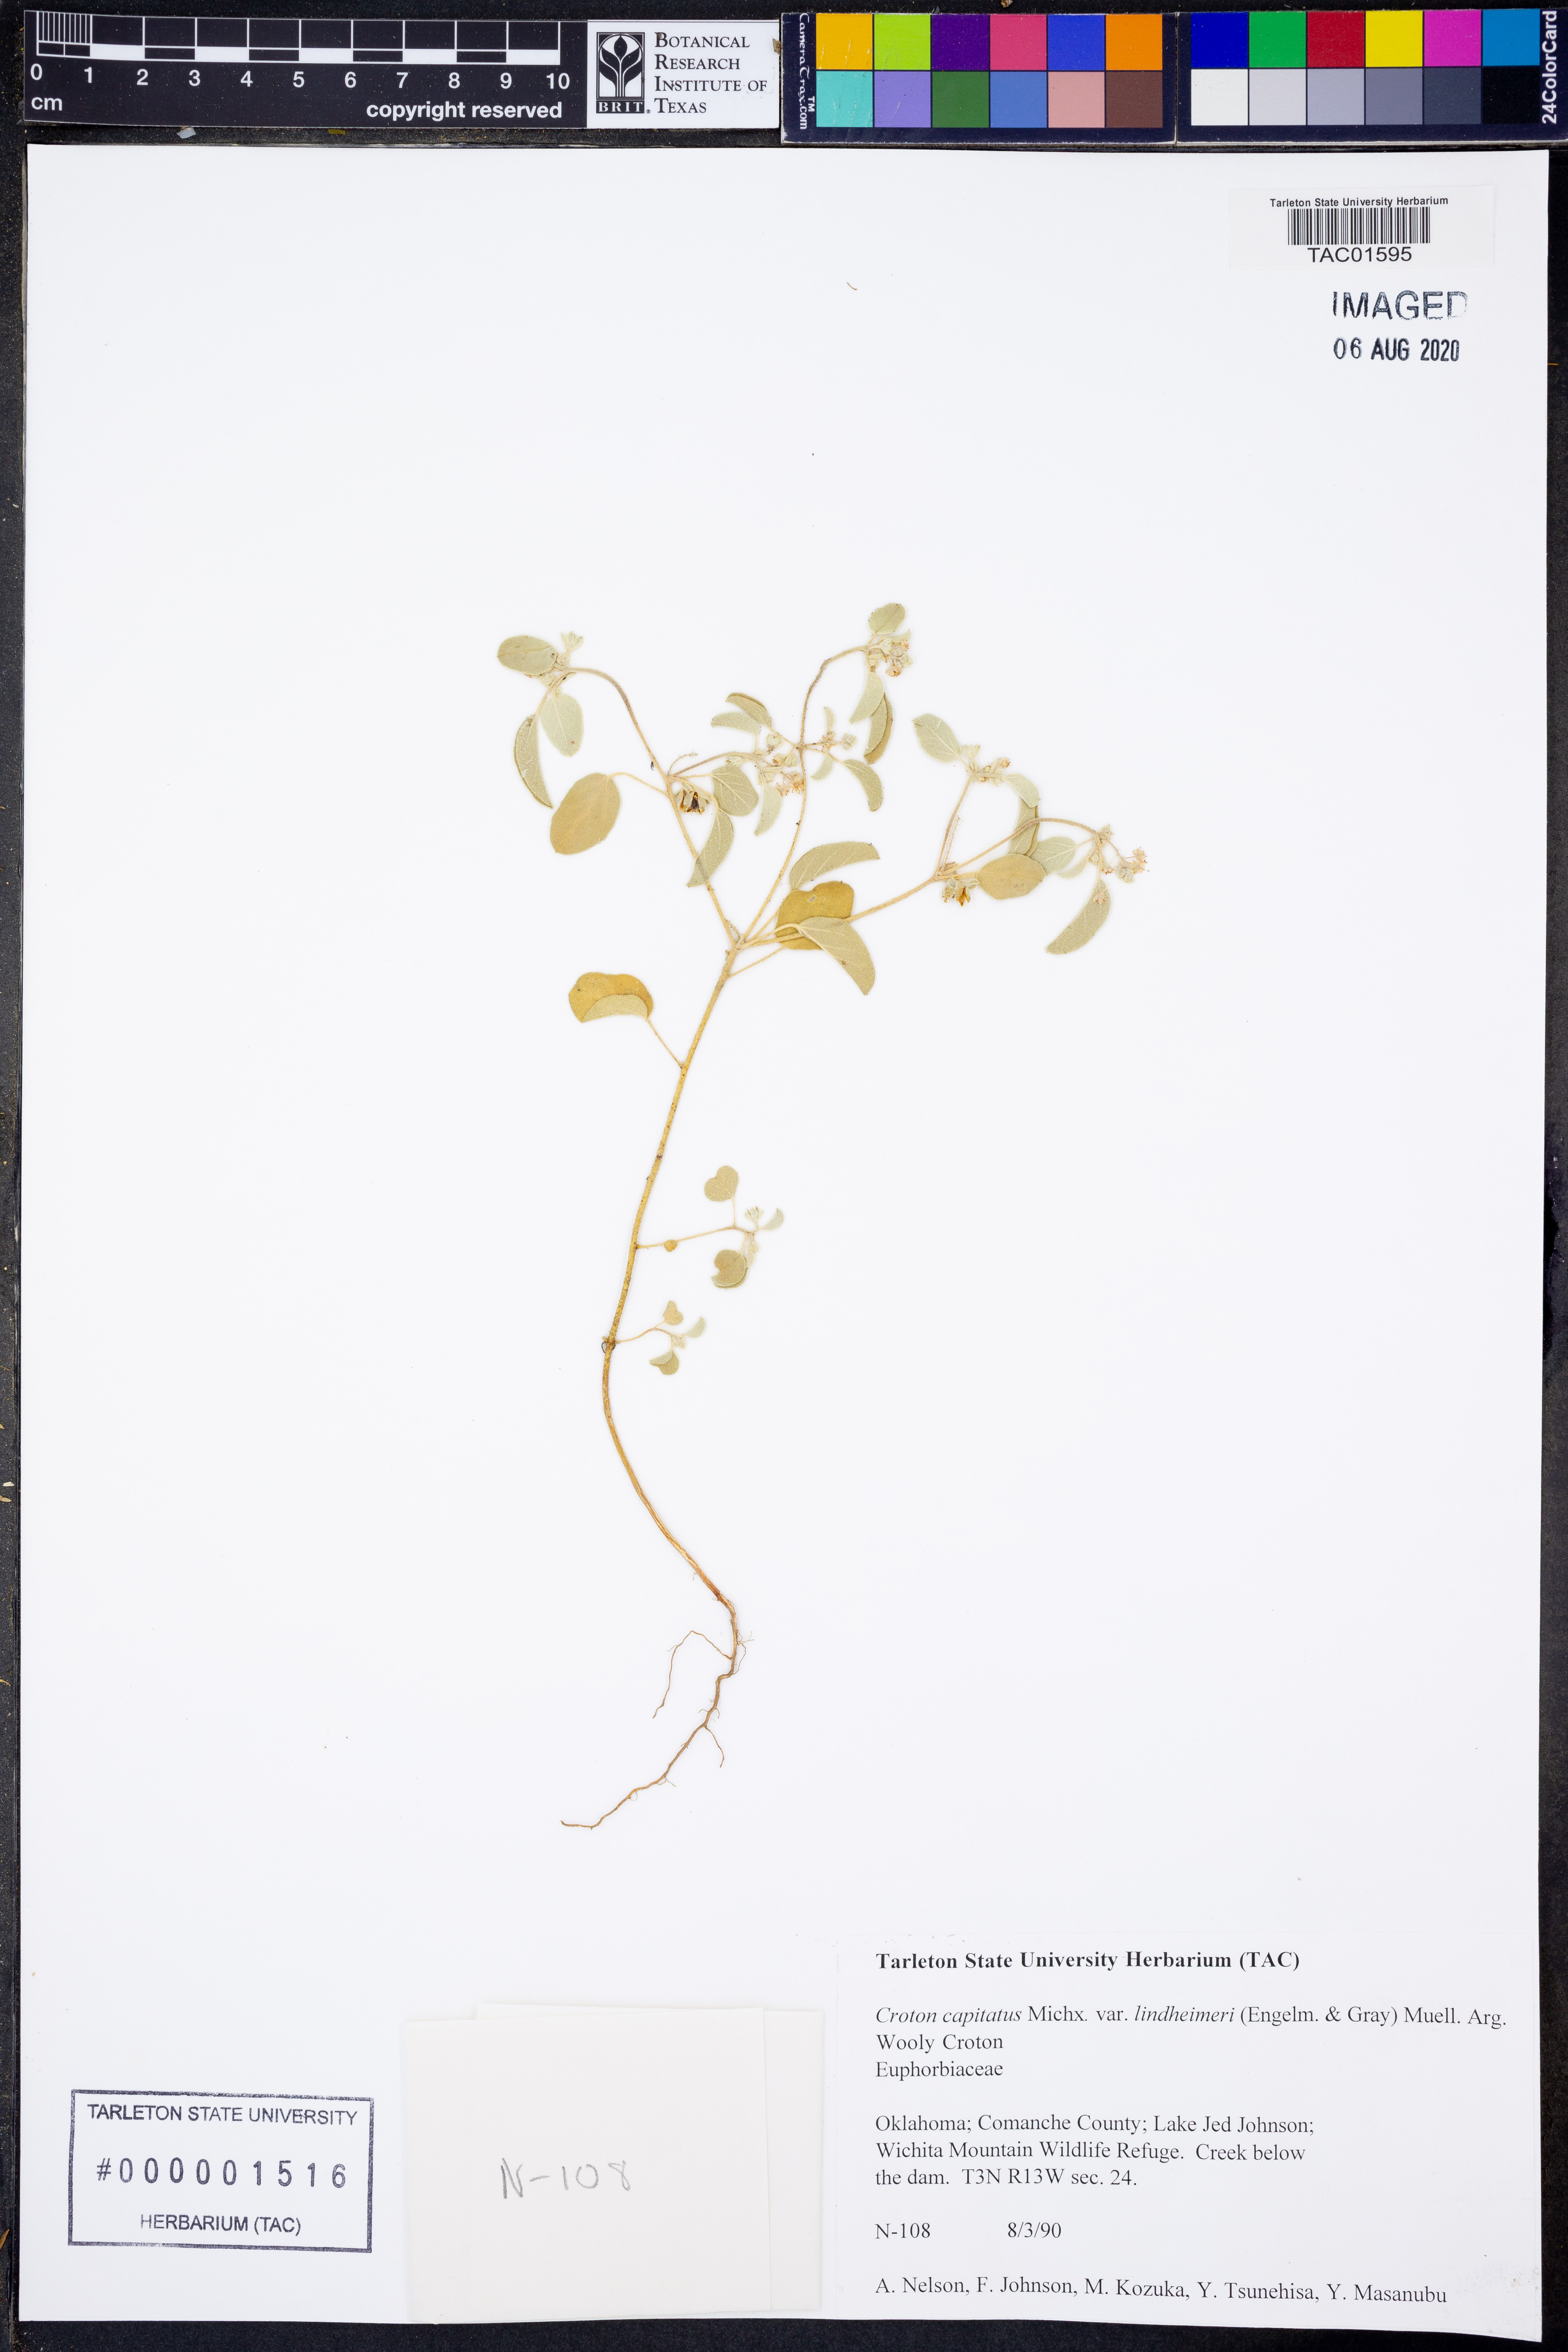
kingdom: Plantae
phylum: Tracheophyta
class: Magnoliopsida
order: Malpighiales
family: Euphorbiaceae
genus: Croton
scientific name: Croton lindheimeri
